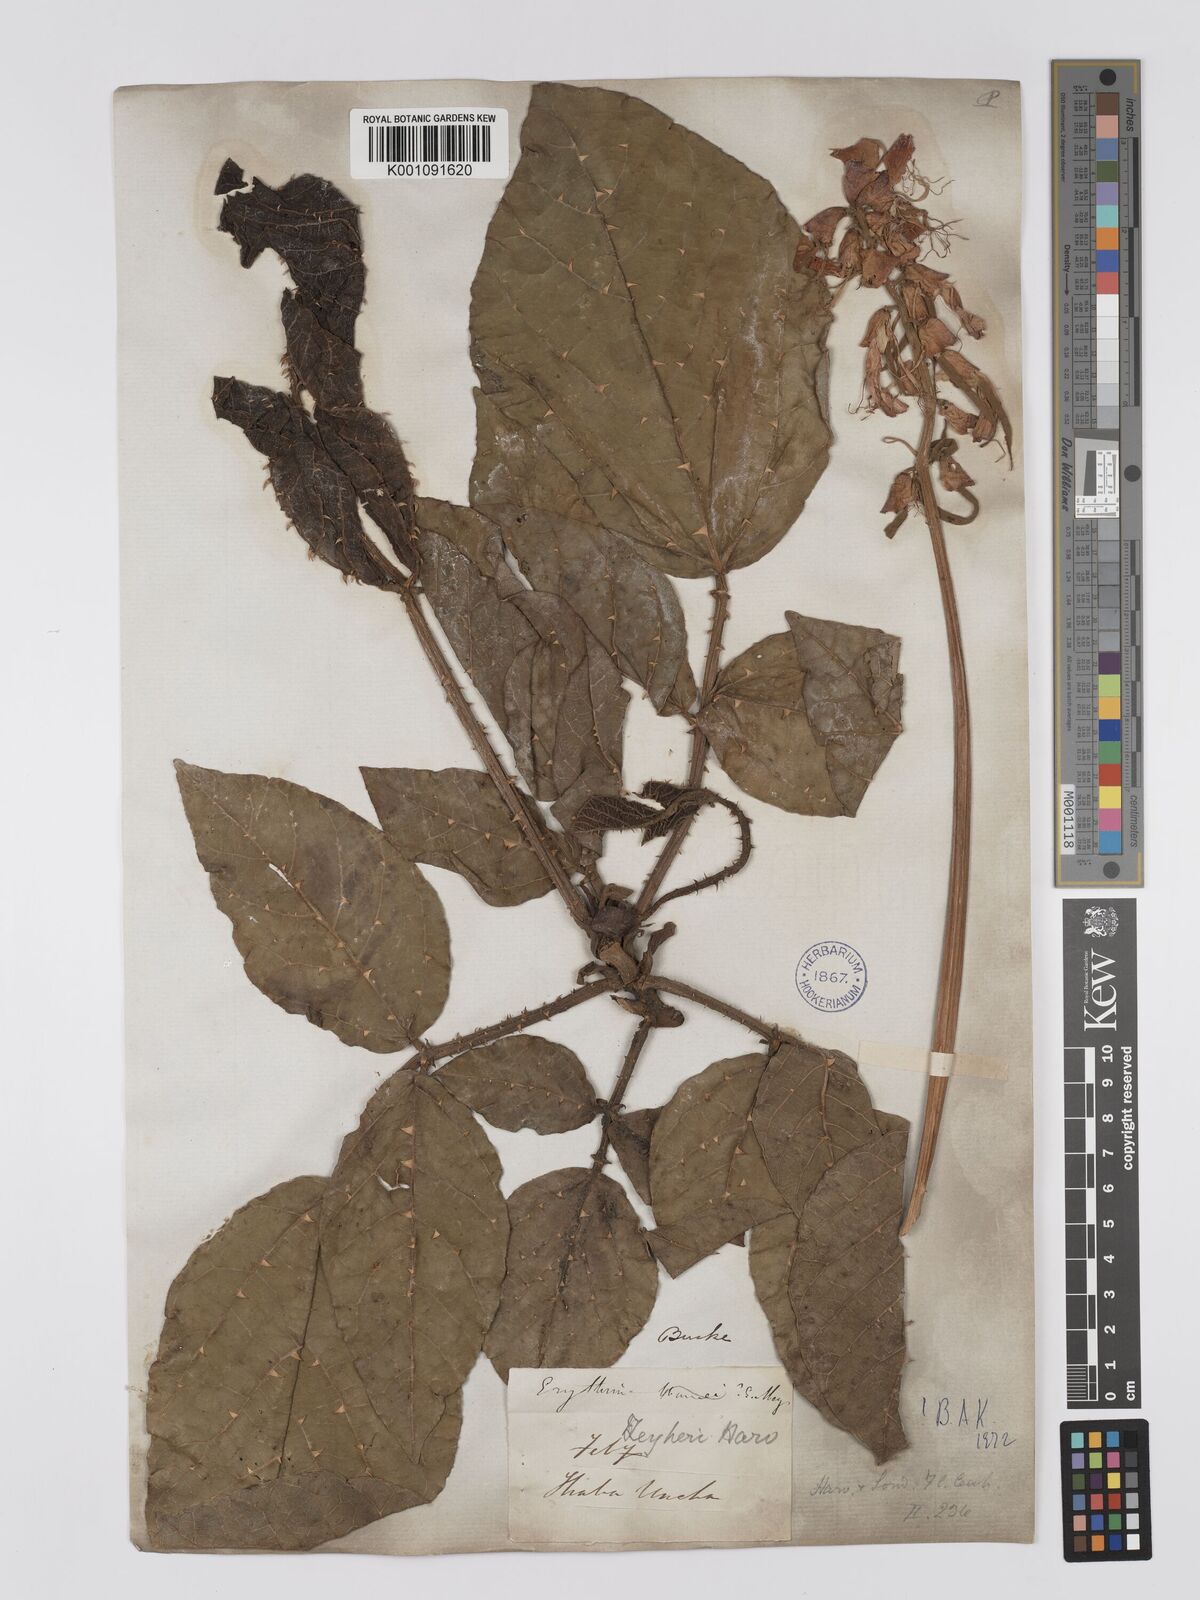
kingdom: Plantae
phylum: Tracheophyta
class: Magnoliopsida
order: Fabales
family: Fabaceae
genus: Erythrina
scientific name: Erythrina zeyheri
